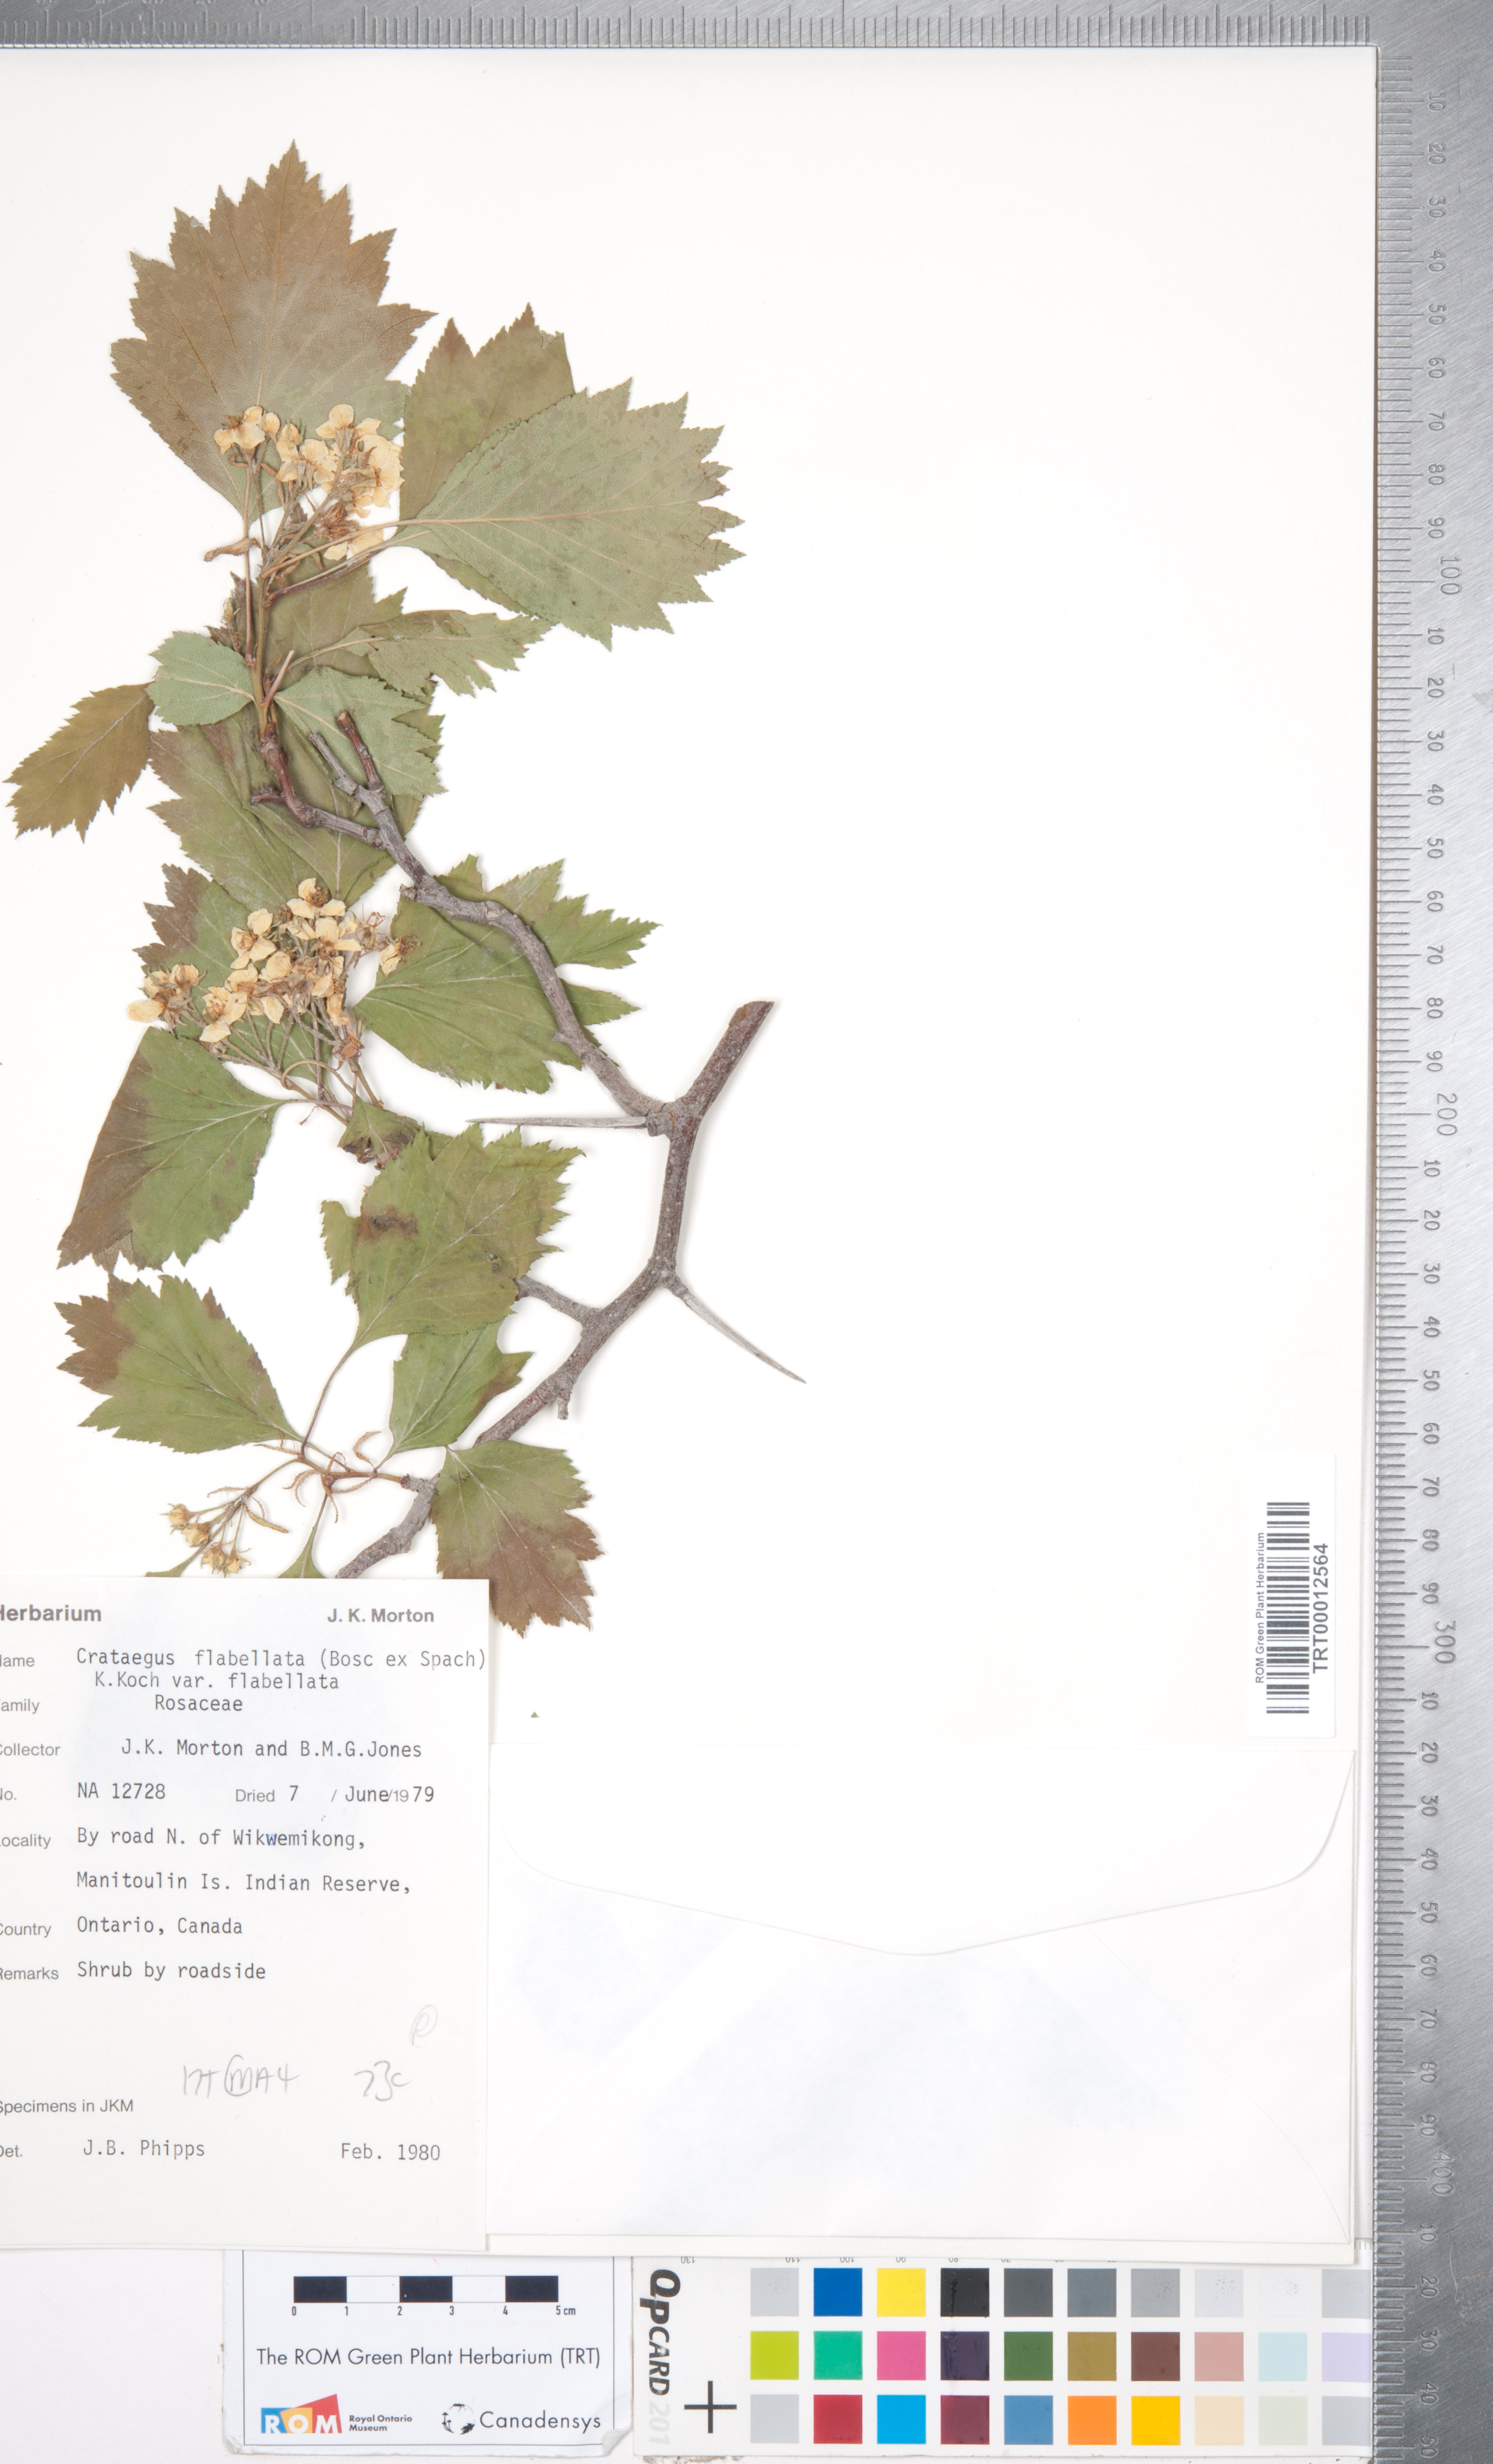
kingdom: Plantae
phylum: Tracheophyta
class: Magnoliopsida
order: Rosales
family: Rosaceae
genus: Crataegus
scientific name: Crataegus flabellata
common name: Bosc's hawthorn
